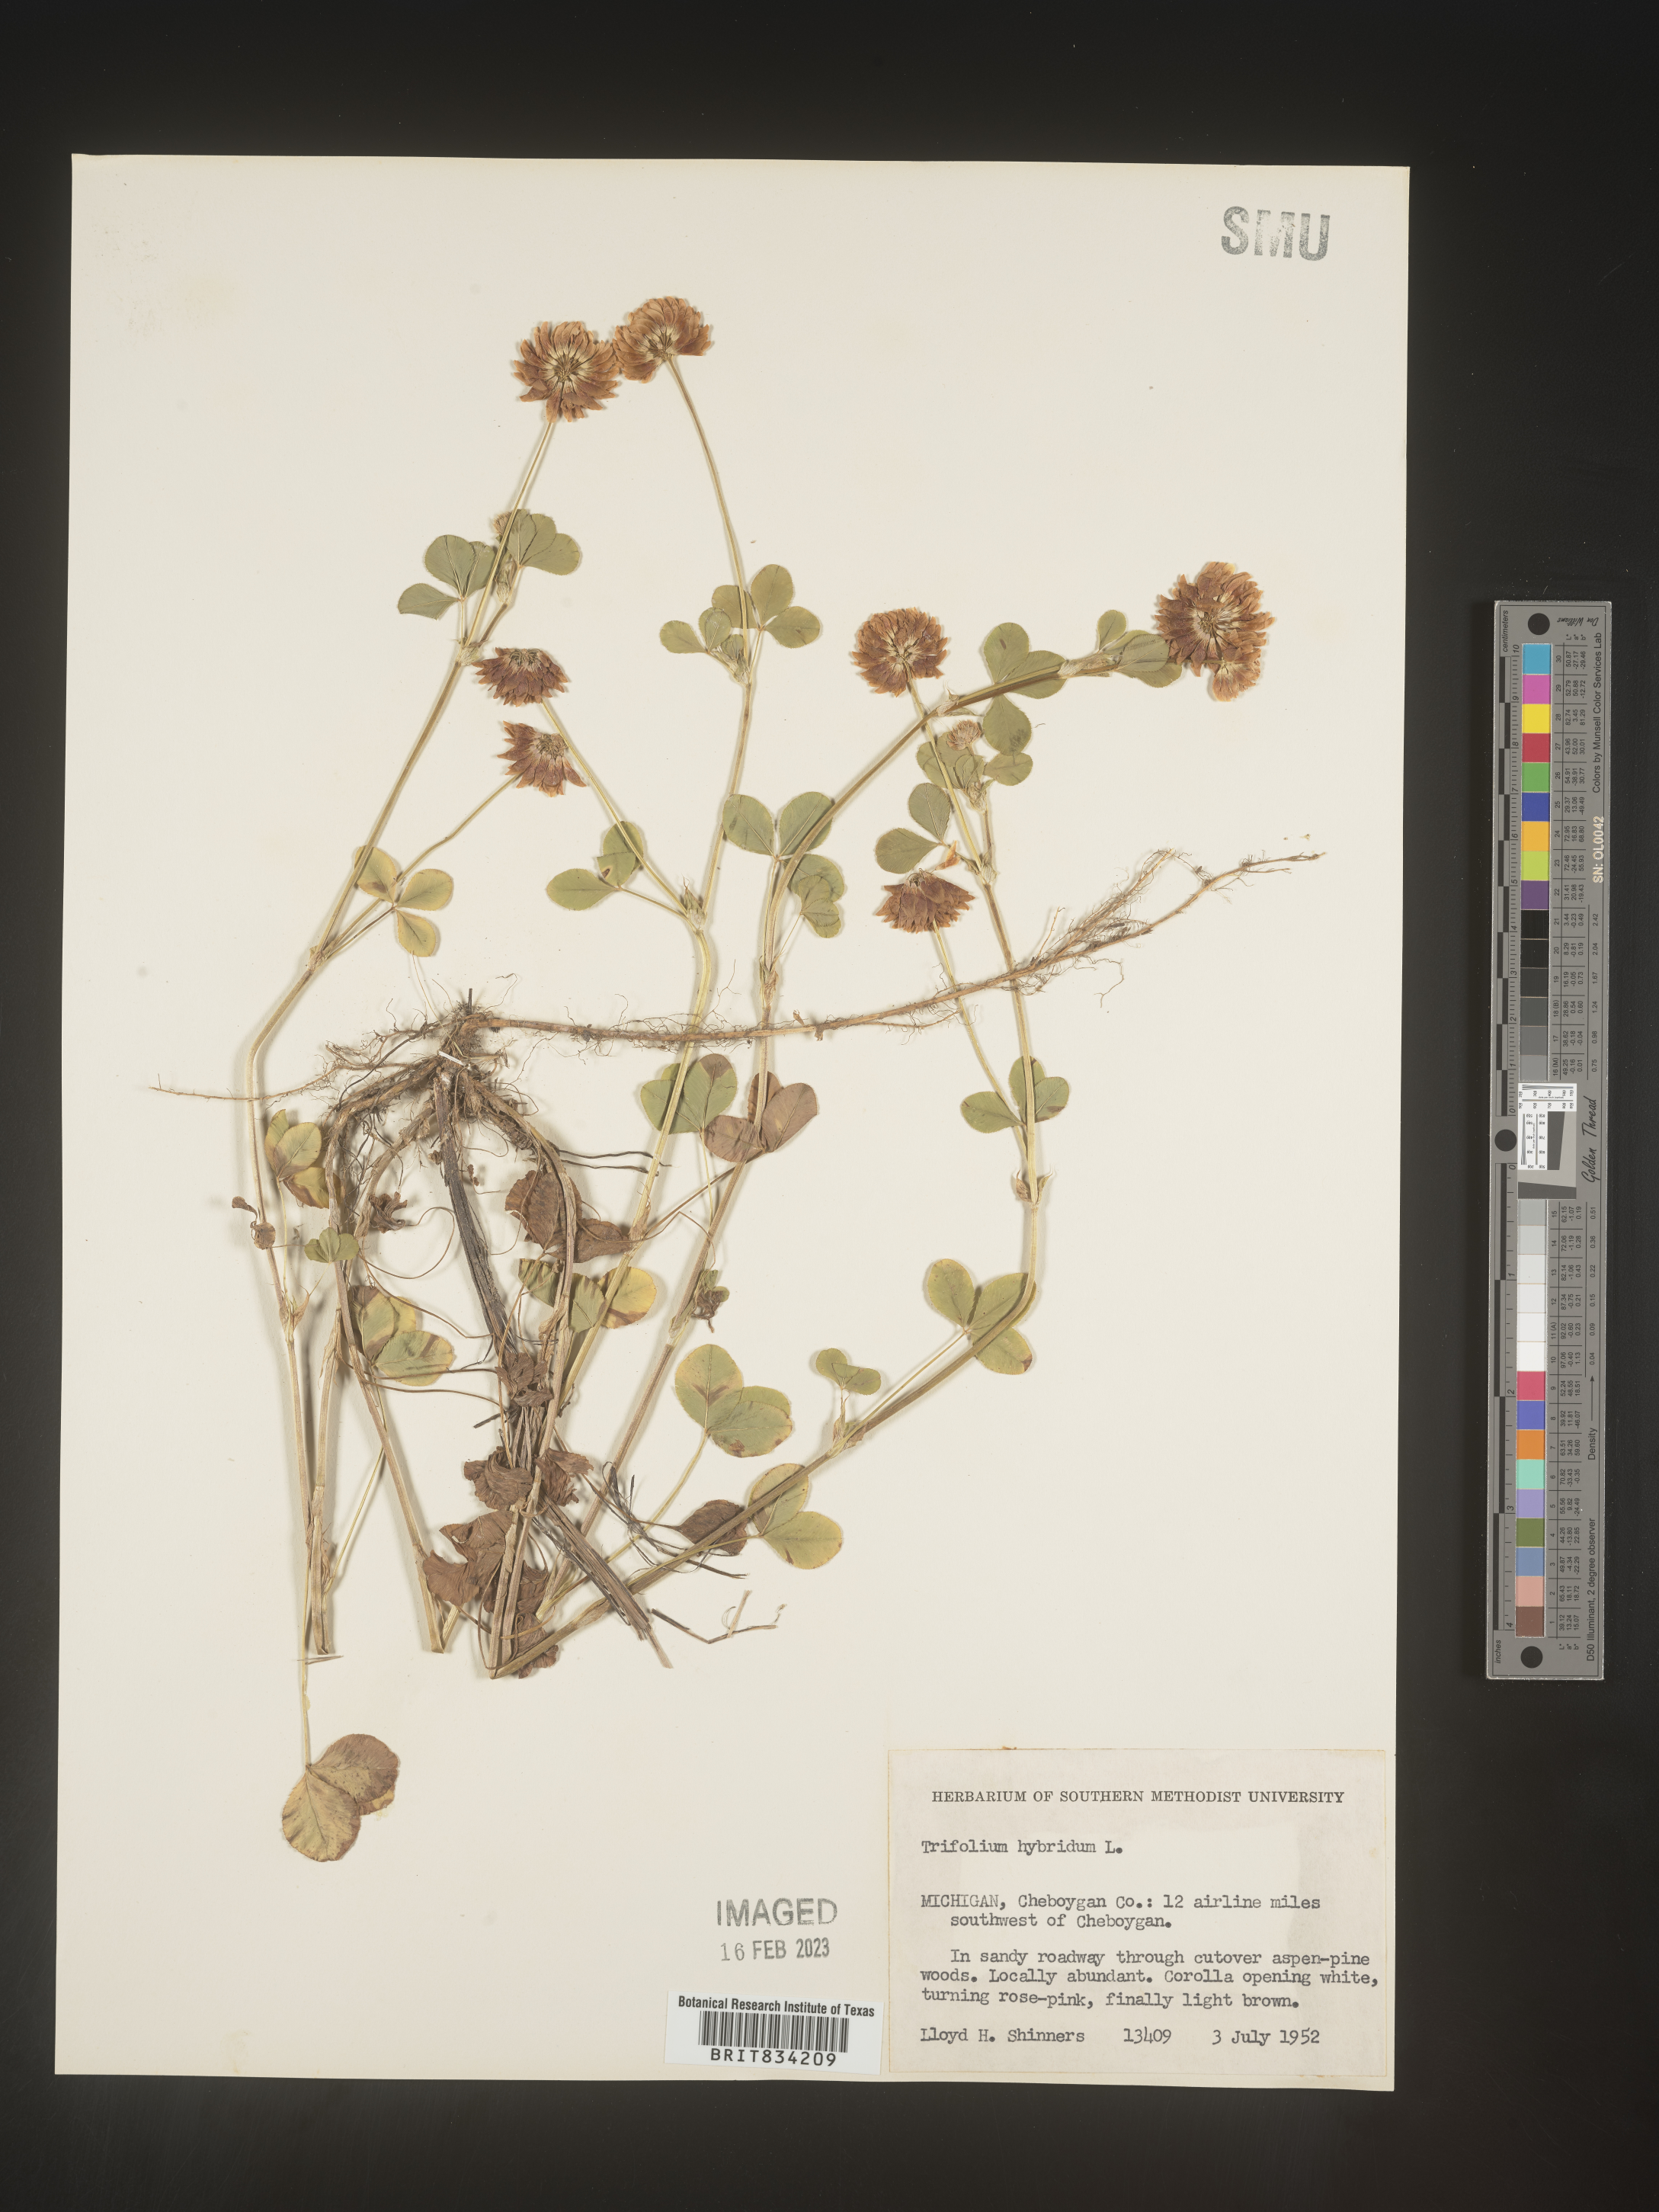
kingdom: Plantae
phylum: Tracheophyta
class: Magnoliopsida
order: Fabales
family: Fabaceae
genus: Trifolium
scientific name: Trifolium hybridum
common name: Alsike clover
